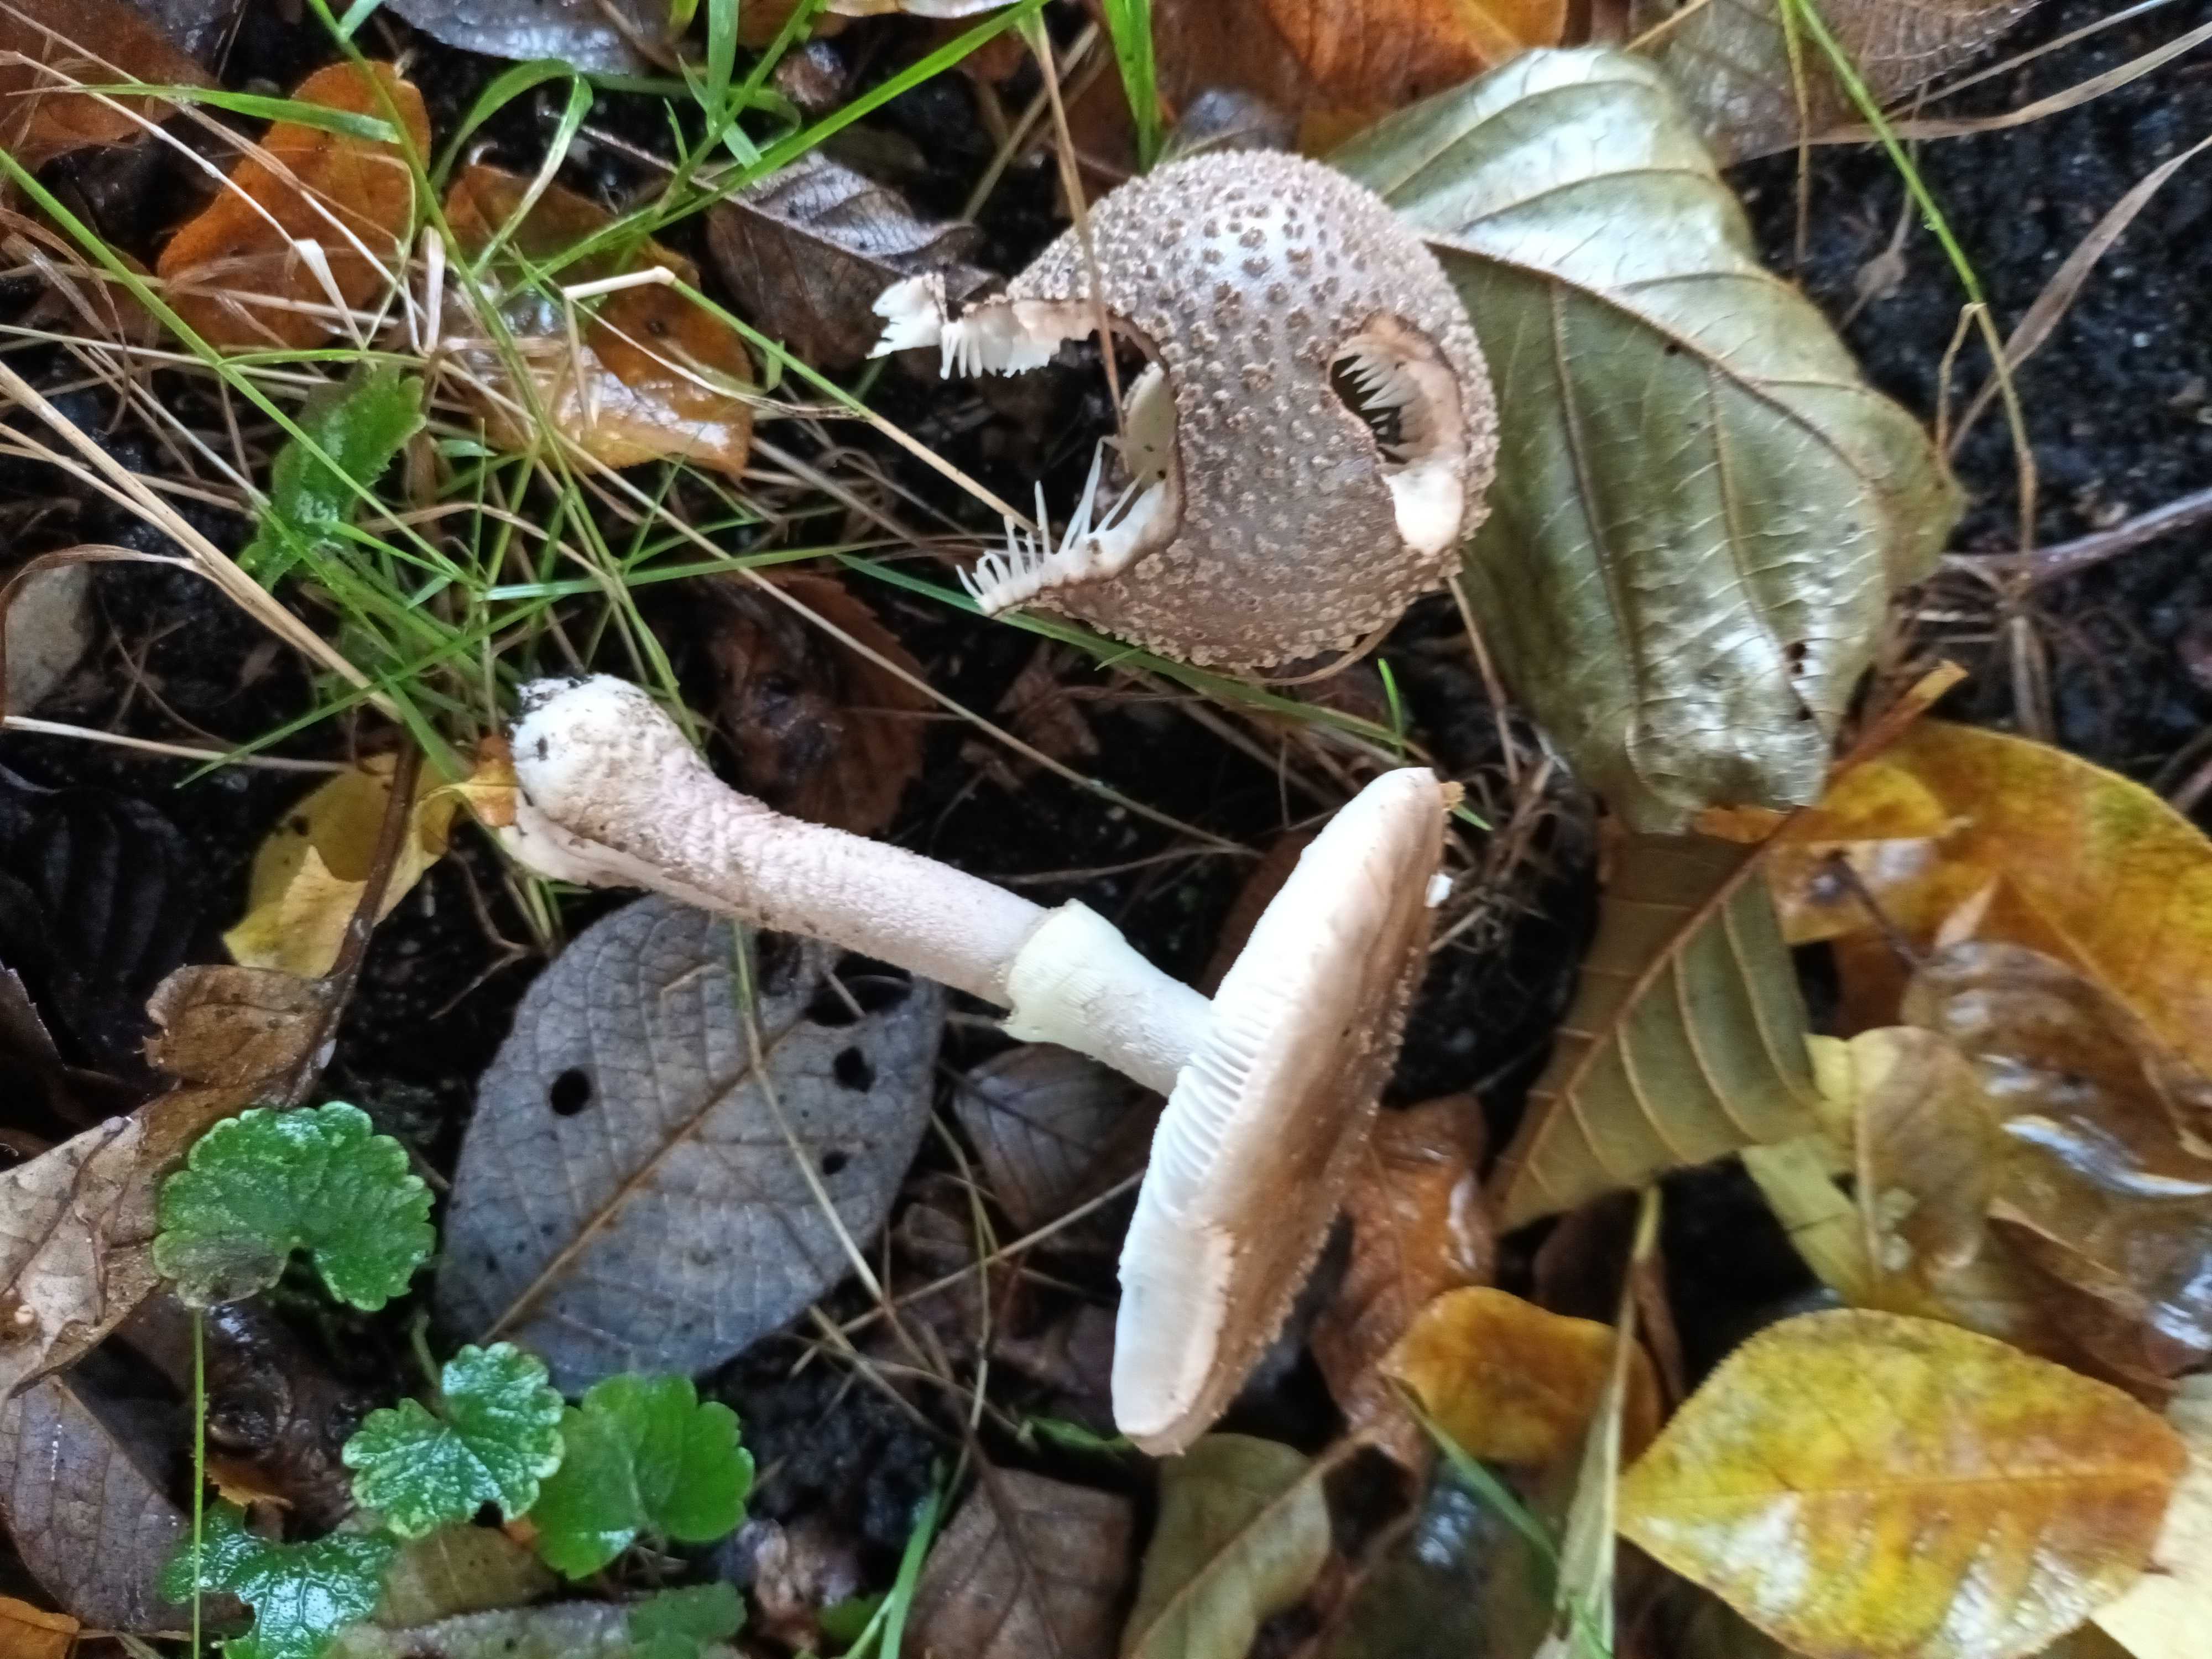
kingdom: Fungi
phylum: Basidiomycota
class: Agaricomycetes
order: Agaricales
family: Amanitaceae
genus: Amanita
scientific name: Amanita
